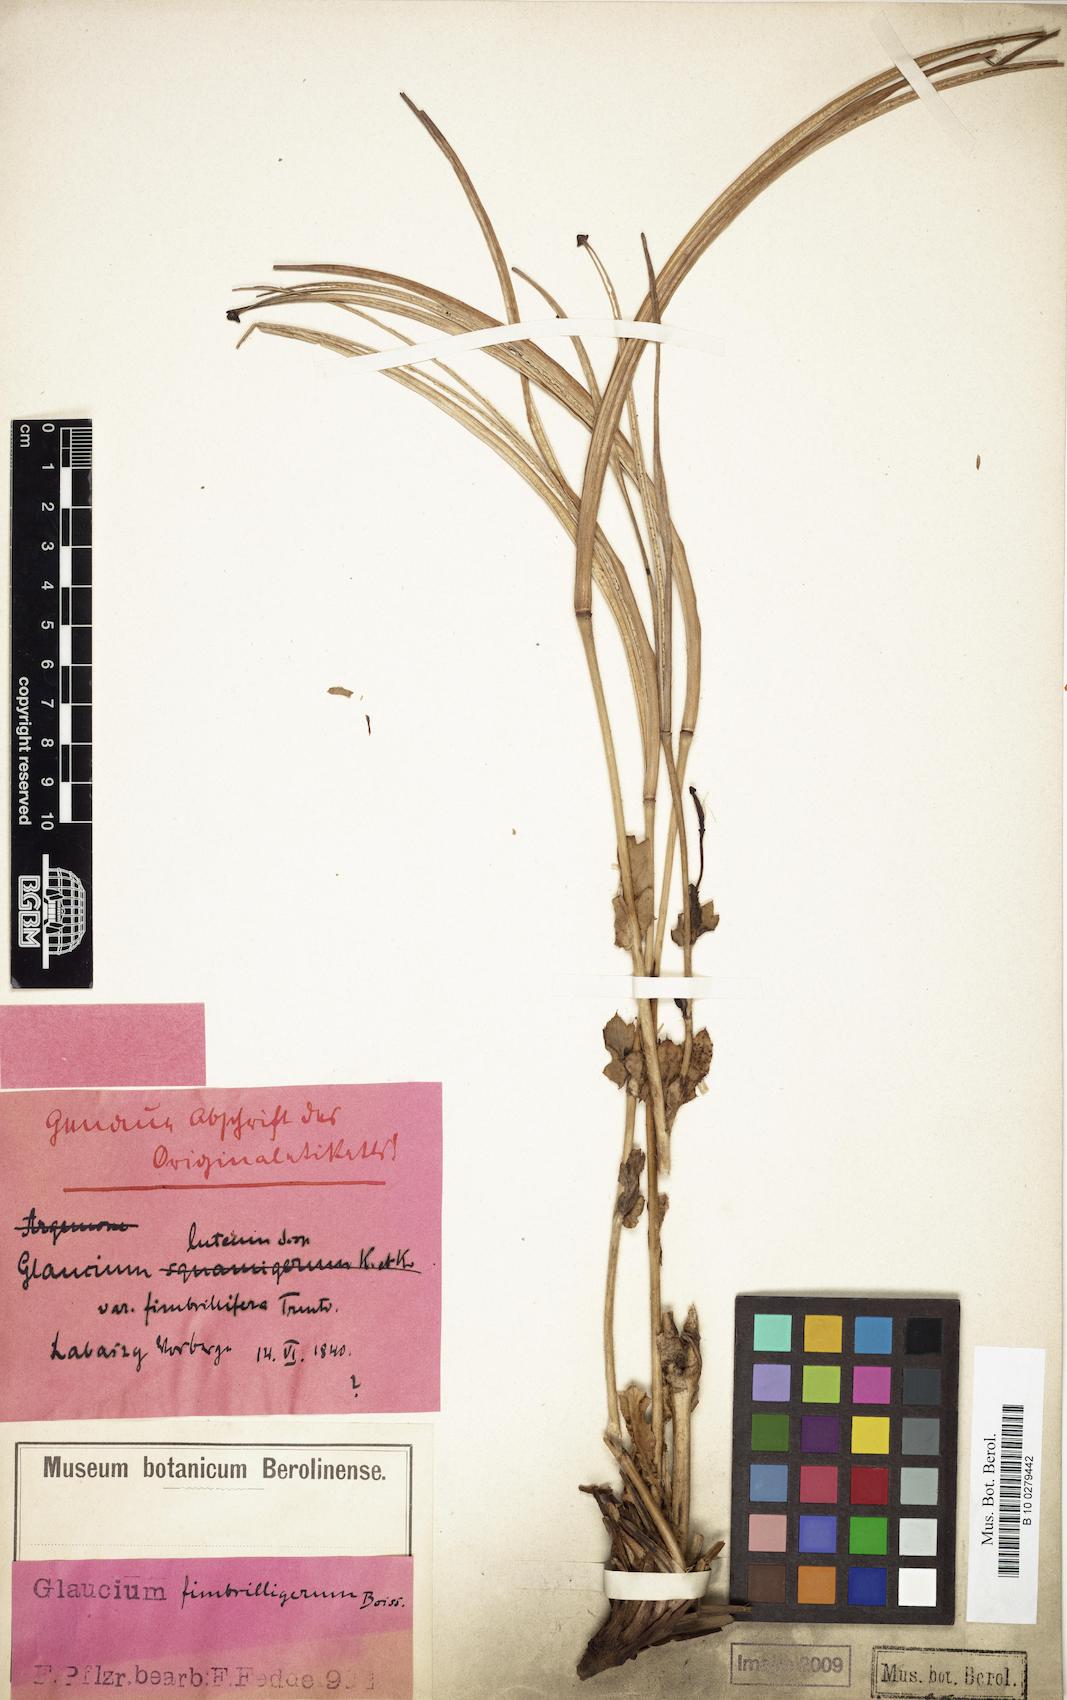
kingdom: Plantae
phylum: Tracheophyta
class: Magnoliopsida
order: Ranunculales
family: Papaveraceae
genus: Glaucium
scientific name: Glaucium fimbrilligerum
